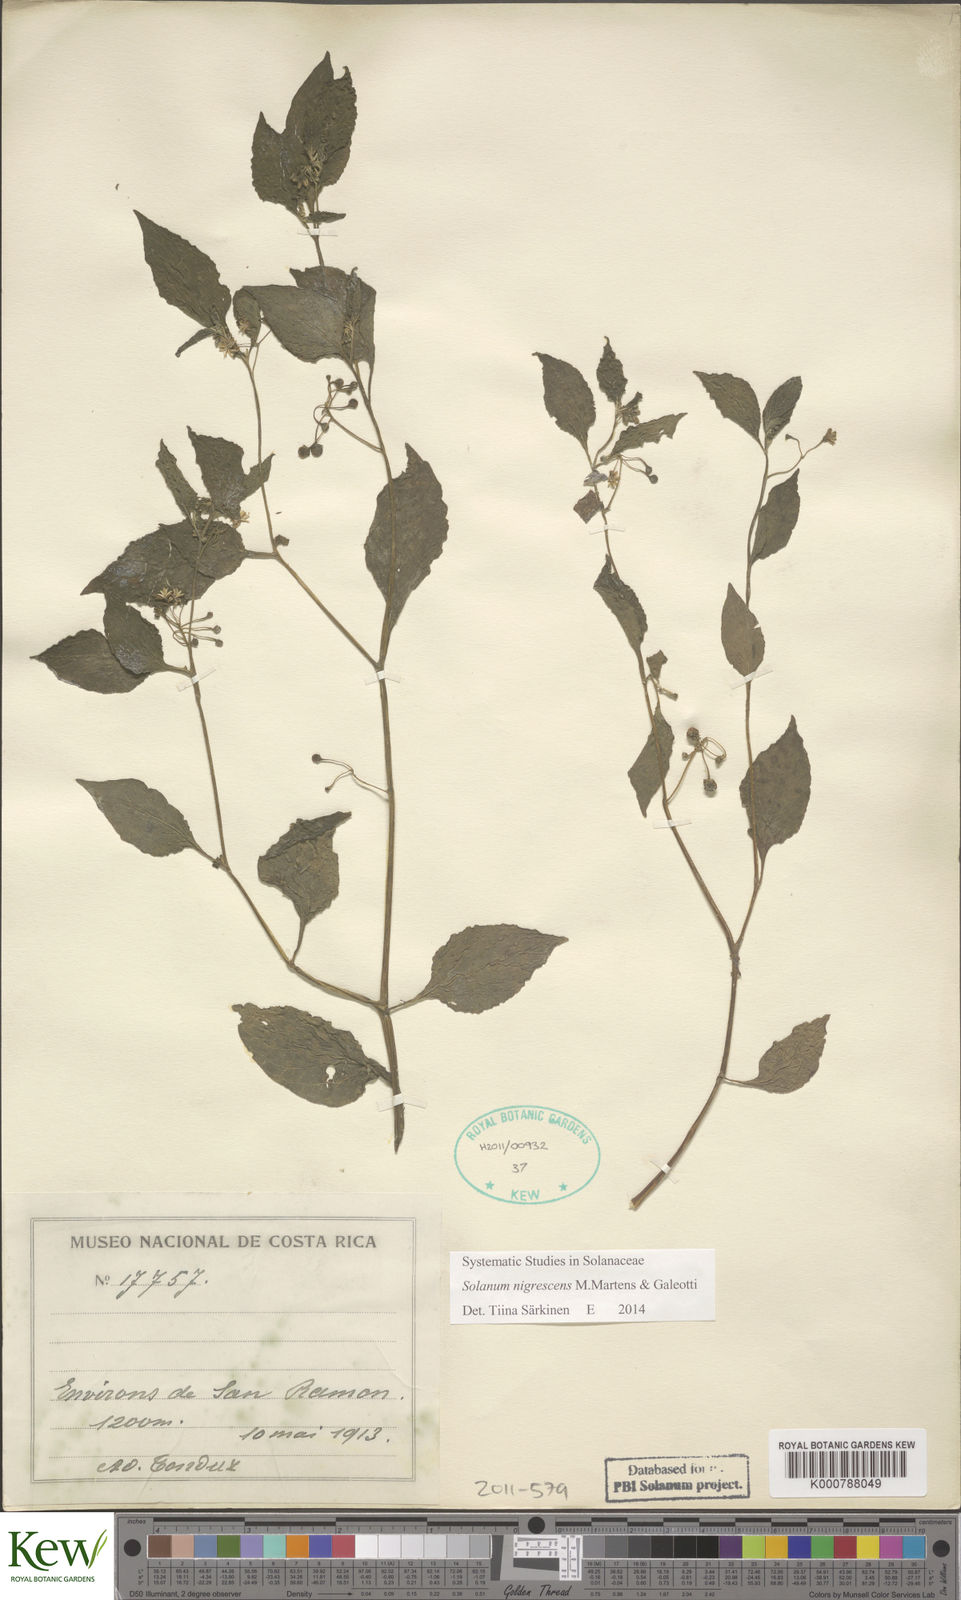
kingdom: Plantae
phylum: Tracheophyta
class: Magnoliopsida
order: Solanales
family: Solanaceae
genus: Solanum
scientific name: Solanum nigrescens
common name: Divine nightshade
